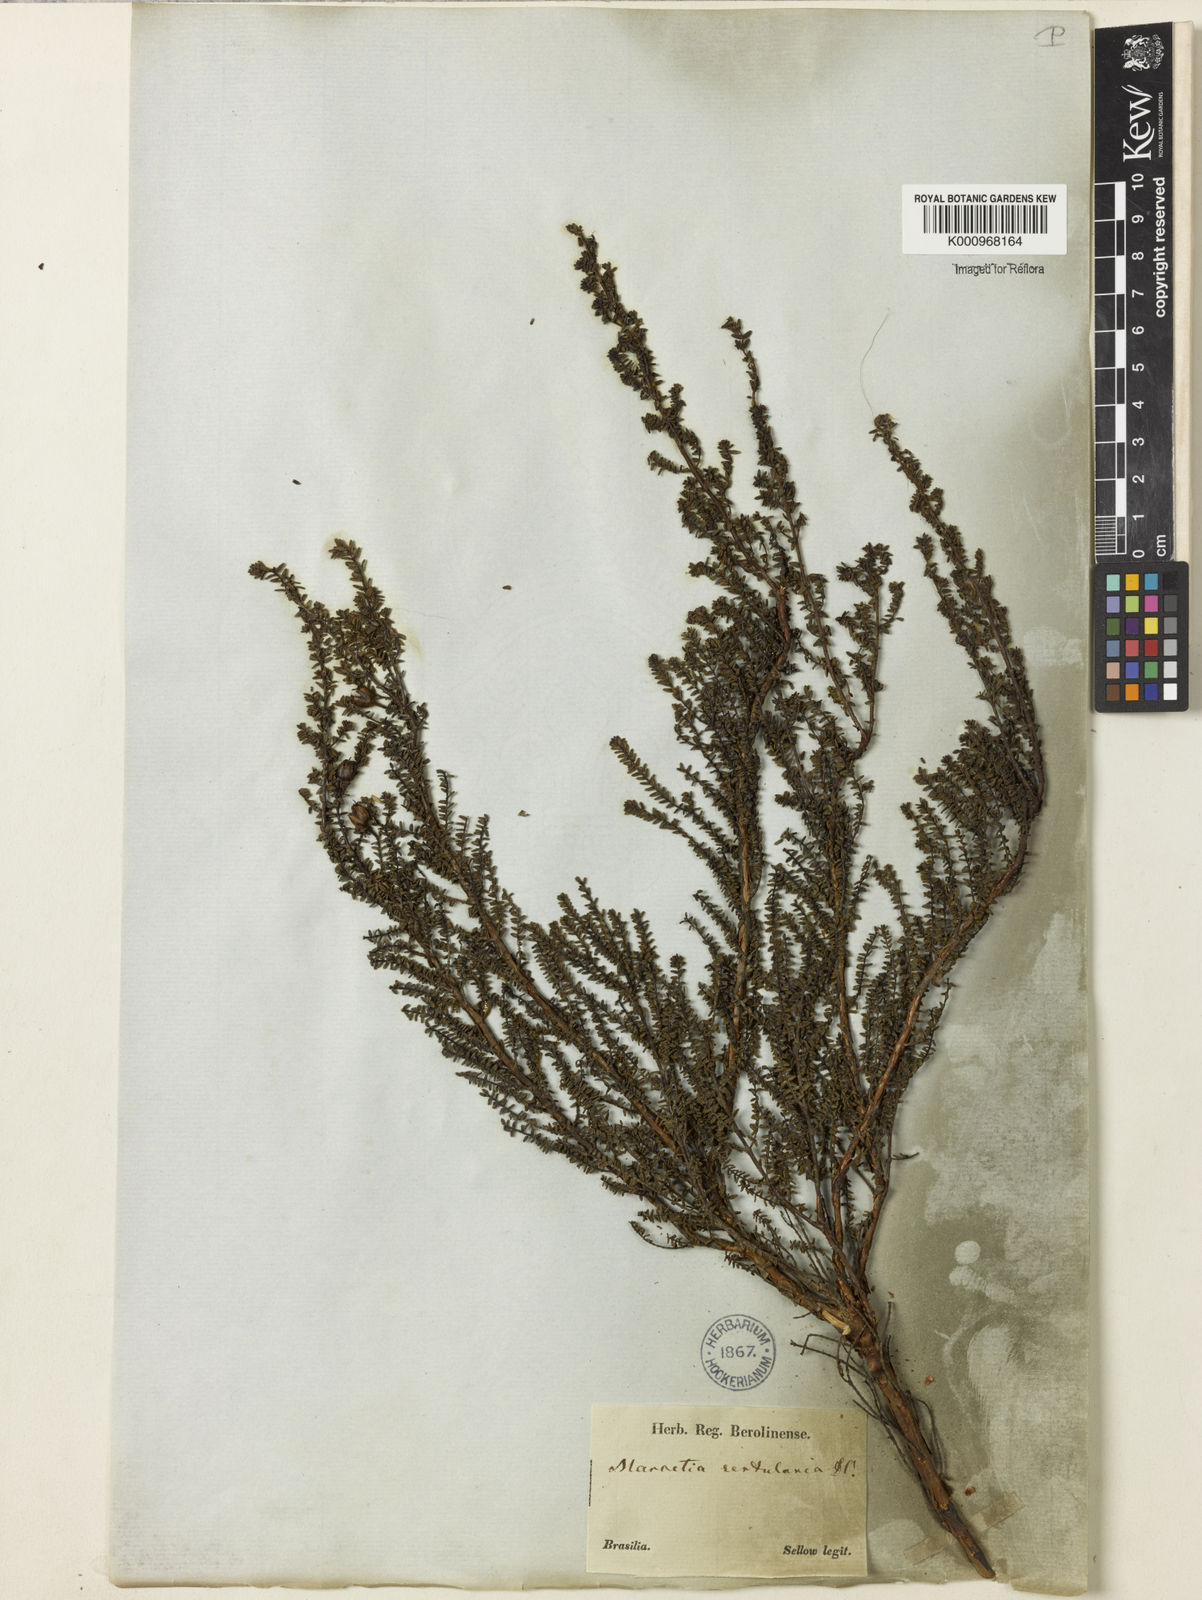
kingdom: Plantae
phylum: Tracheophyta
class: Magnoliopsida
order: Myrtales
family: Melastomataceae
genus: Fritzschia
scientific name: Fritzschia sertularia
